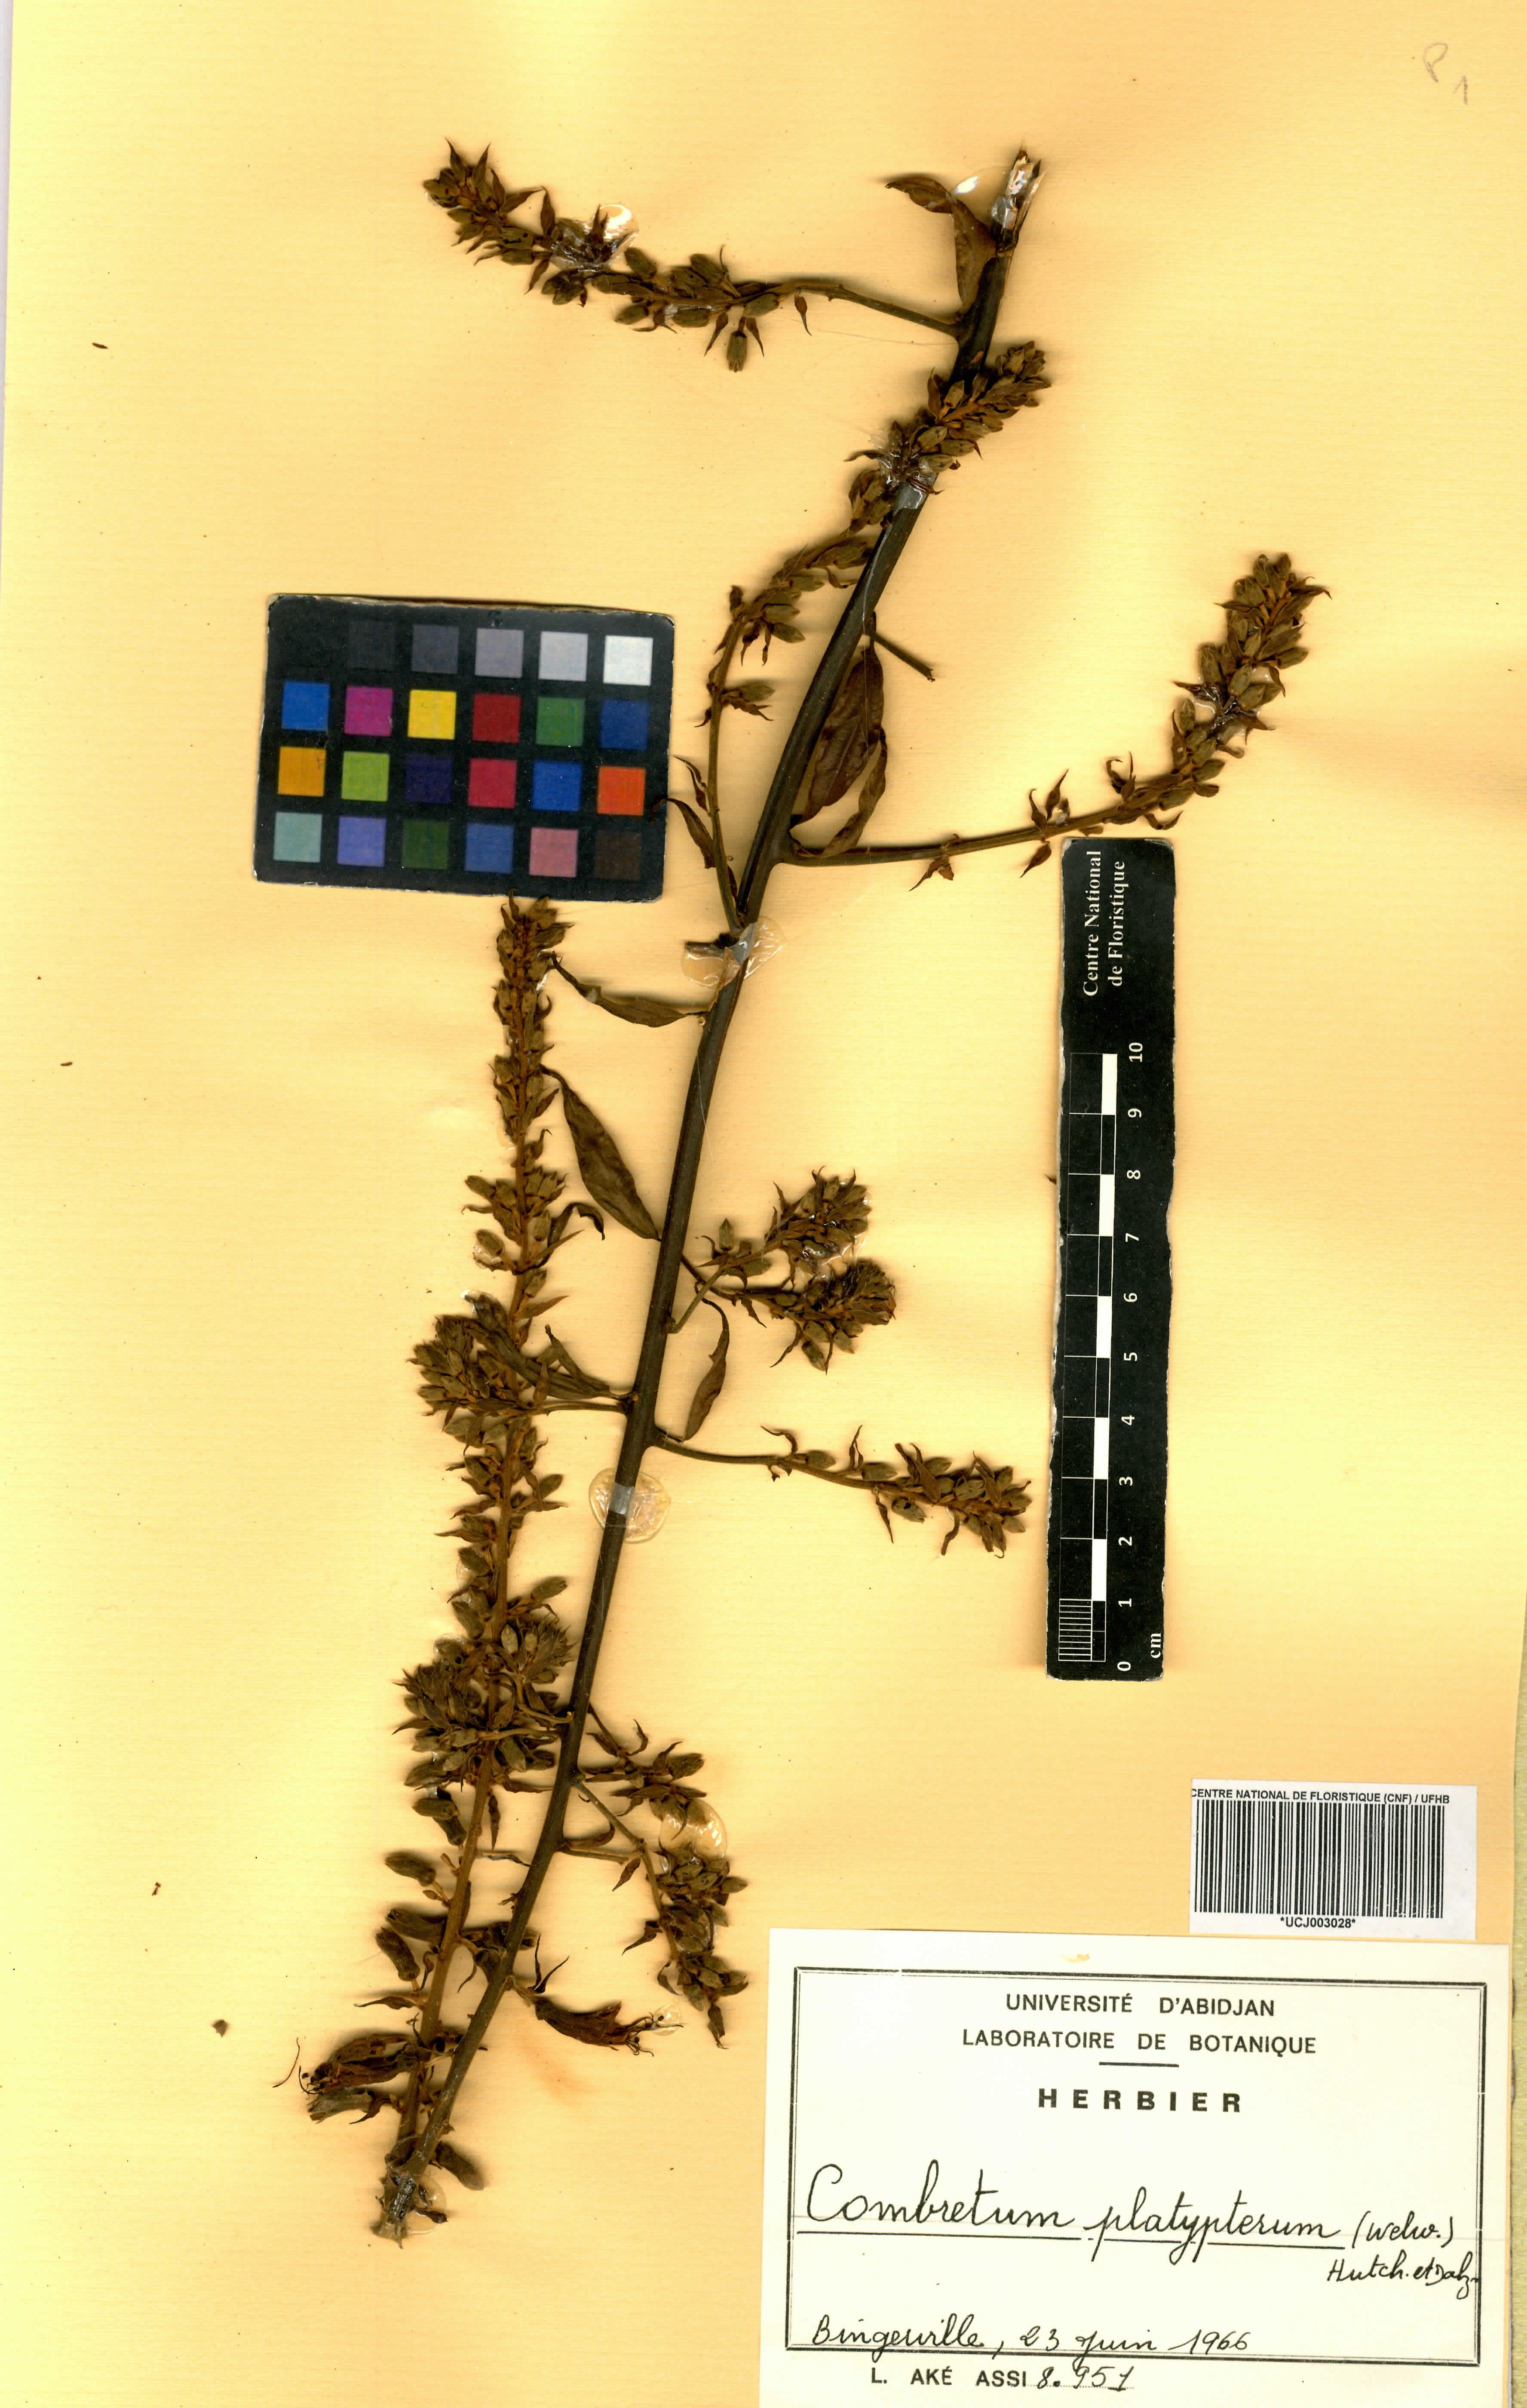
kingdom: Plantae
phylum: Tracheophyta
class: Magnoliopsida
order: Myrtales
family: Combretaceae
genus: Combretum
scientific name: Combretum platypterum
